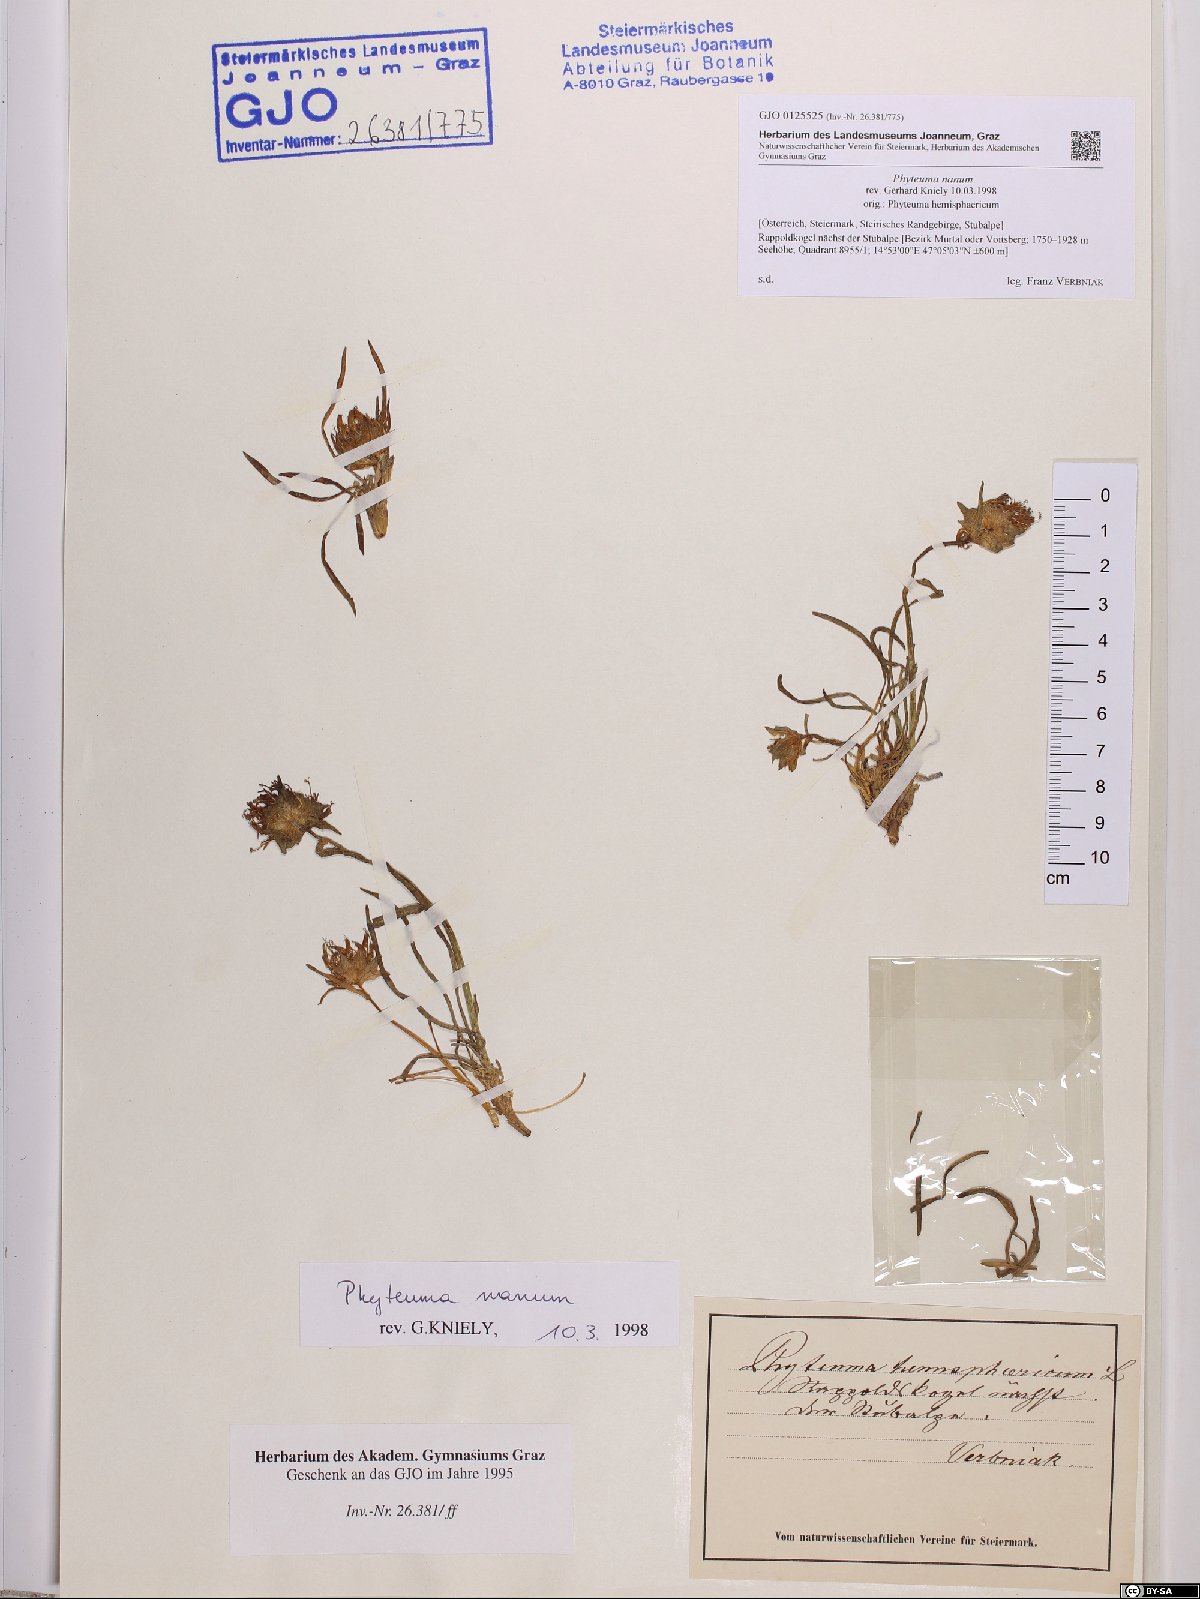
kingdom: Plantae
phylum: Tracheophyta
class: Magnoliopsida
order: Asterales
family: Campanulaceae
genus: Phyteuma
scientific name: Phyteuma globulariifolium
